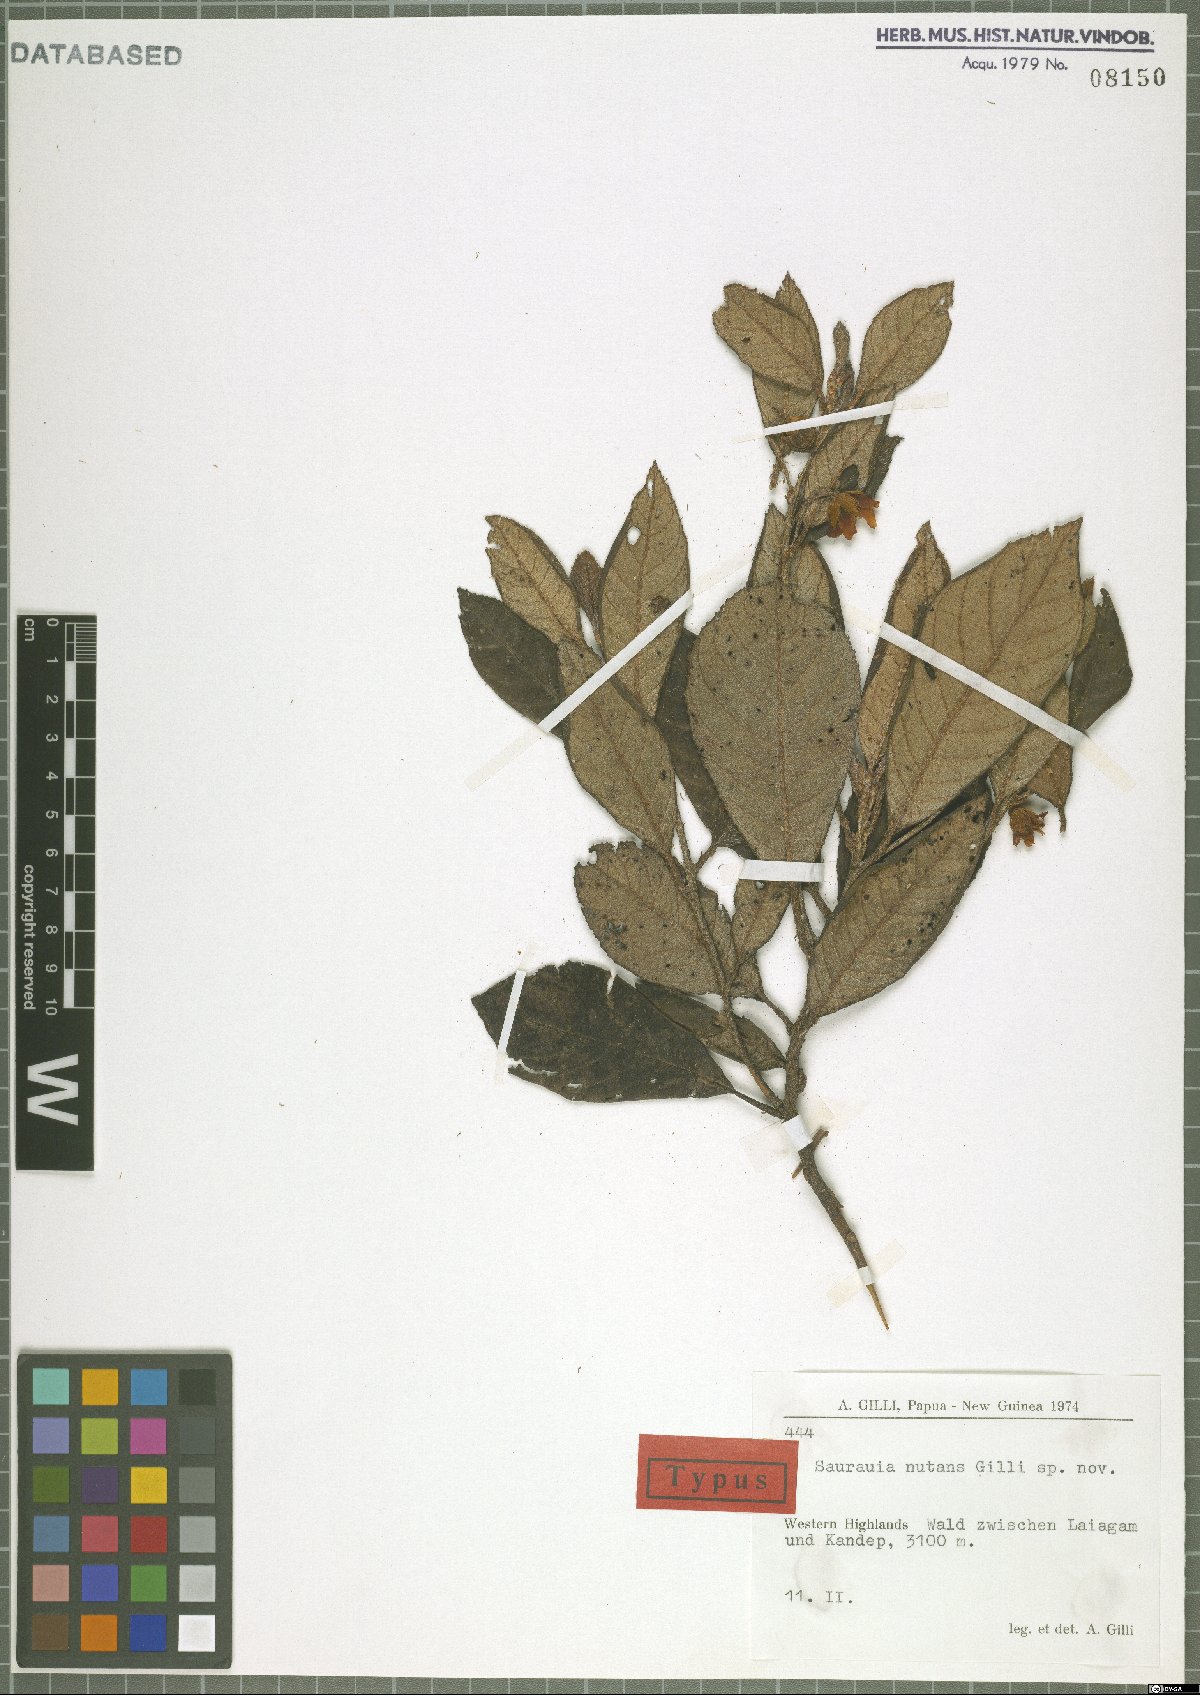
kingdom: Plantae
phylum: Tracheophyta
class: Magnoliopsida
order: Ericales
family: Actinidiaceae
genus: Saurauia
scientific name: Saurauia nutans
